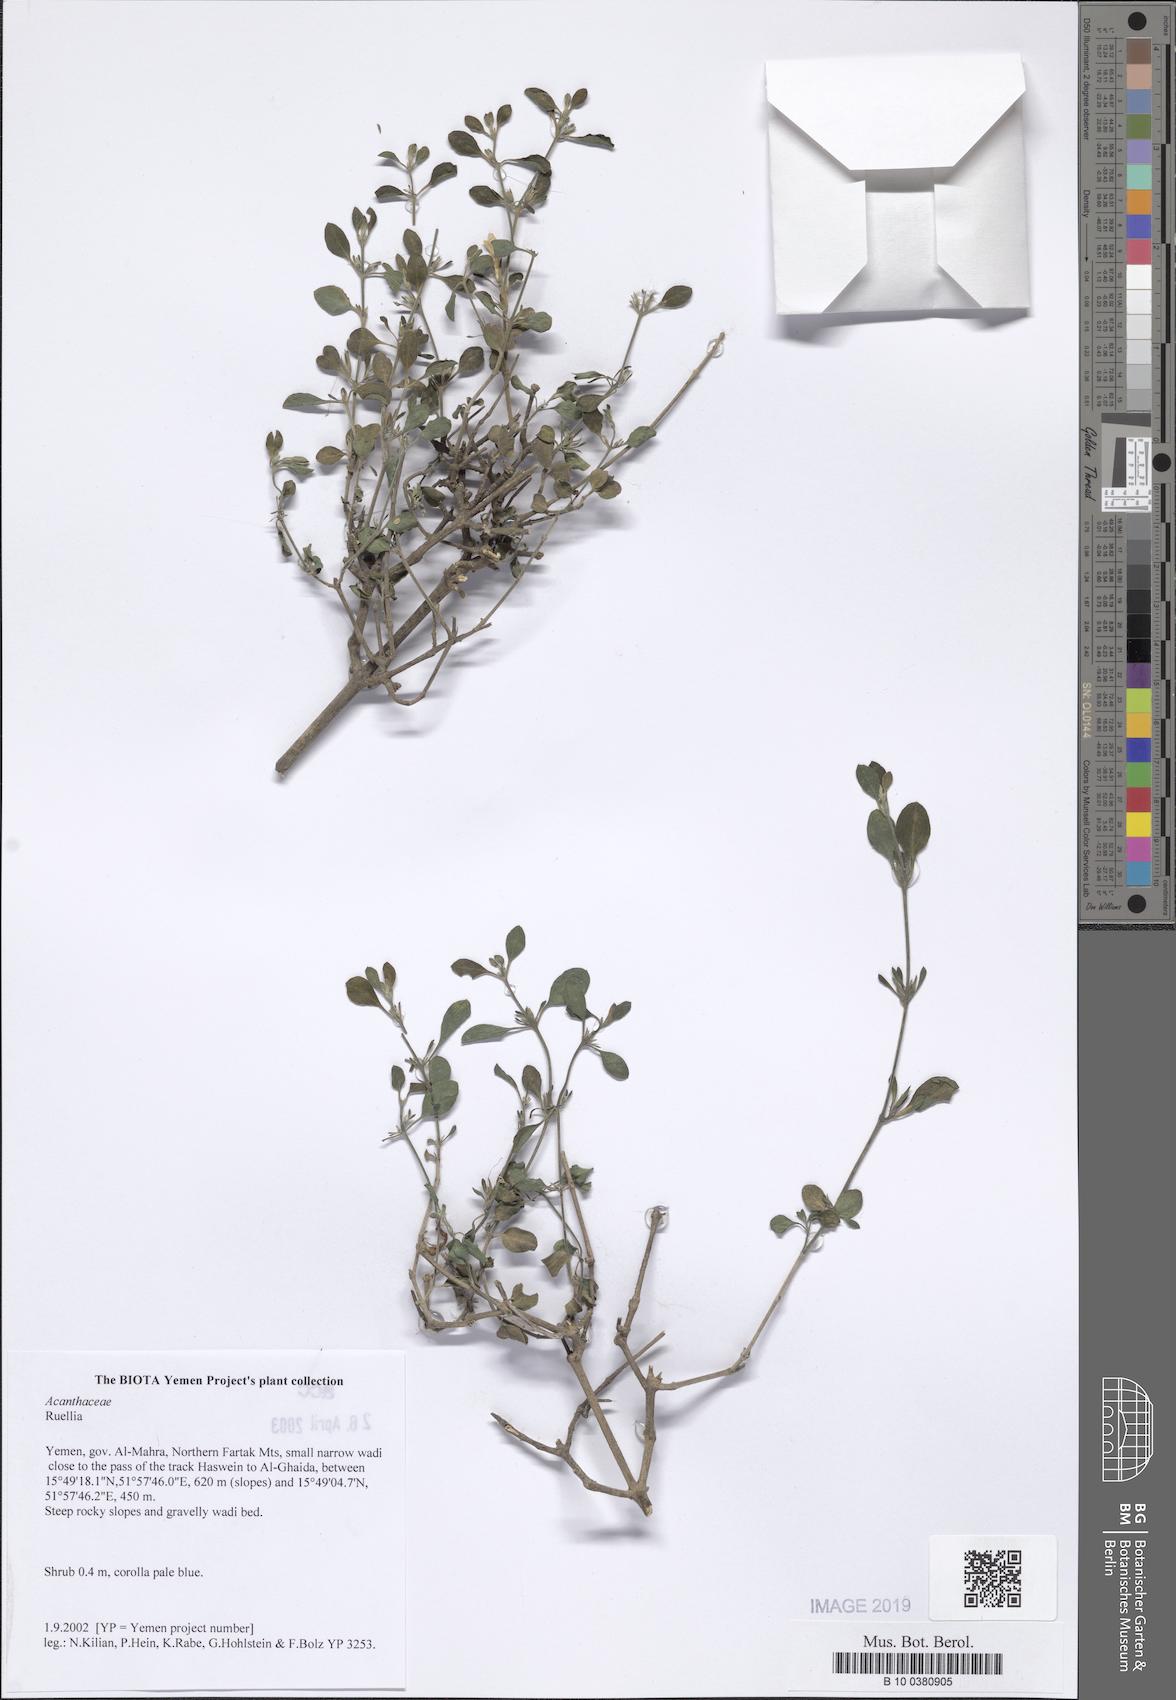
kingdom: Plantae
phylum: Tracheophyta
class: Magnoliopsida
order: Lamiales
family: Acanthaceae
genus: Ruellia
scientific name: Ruellia
